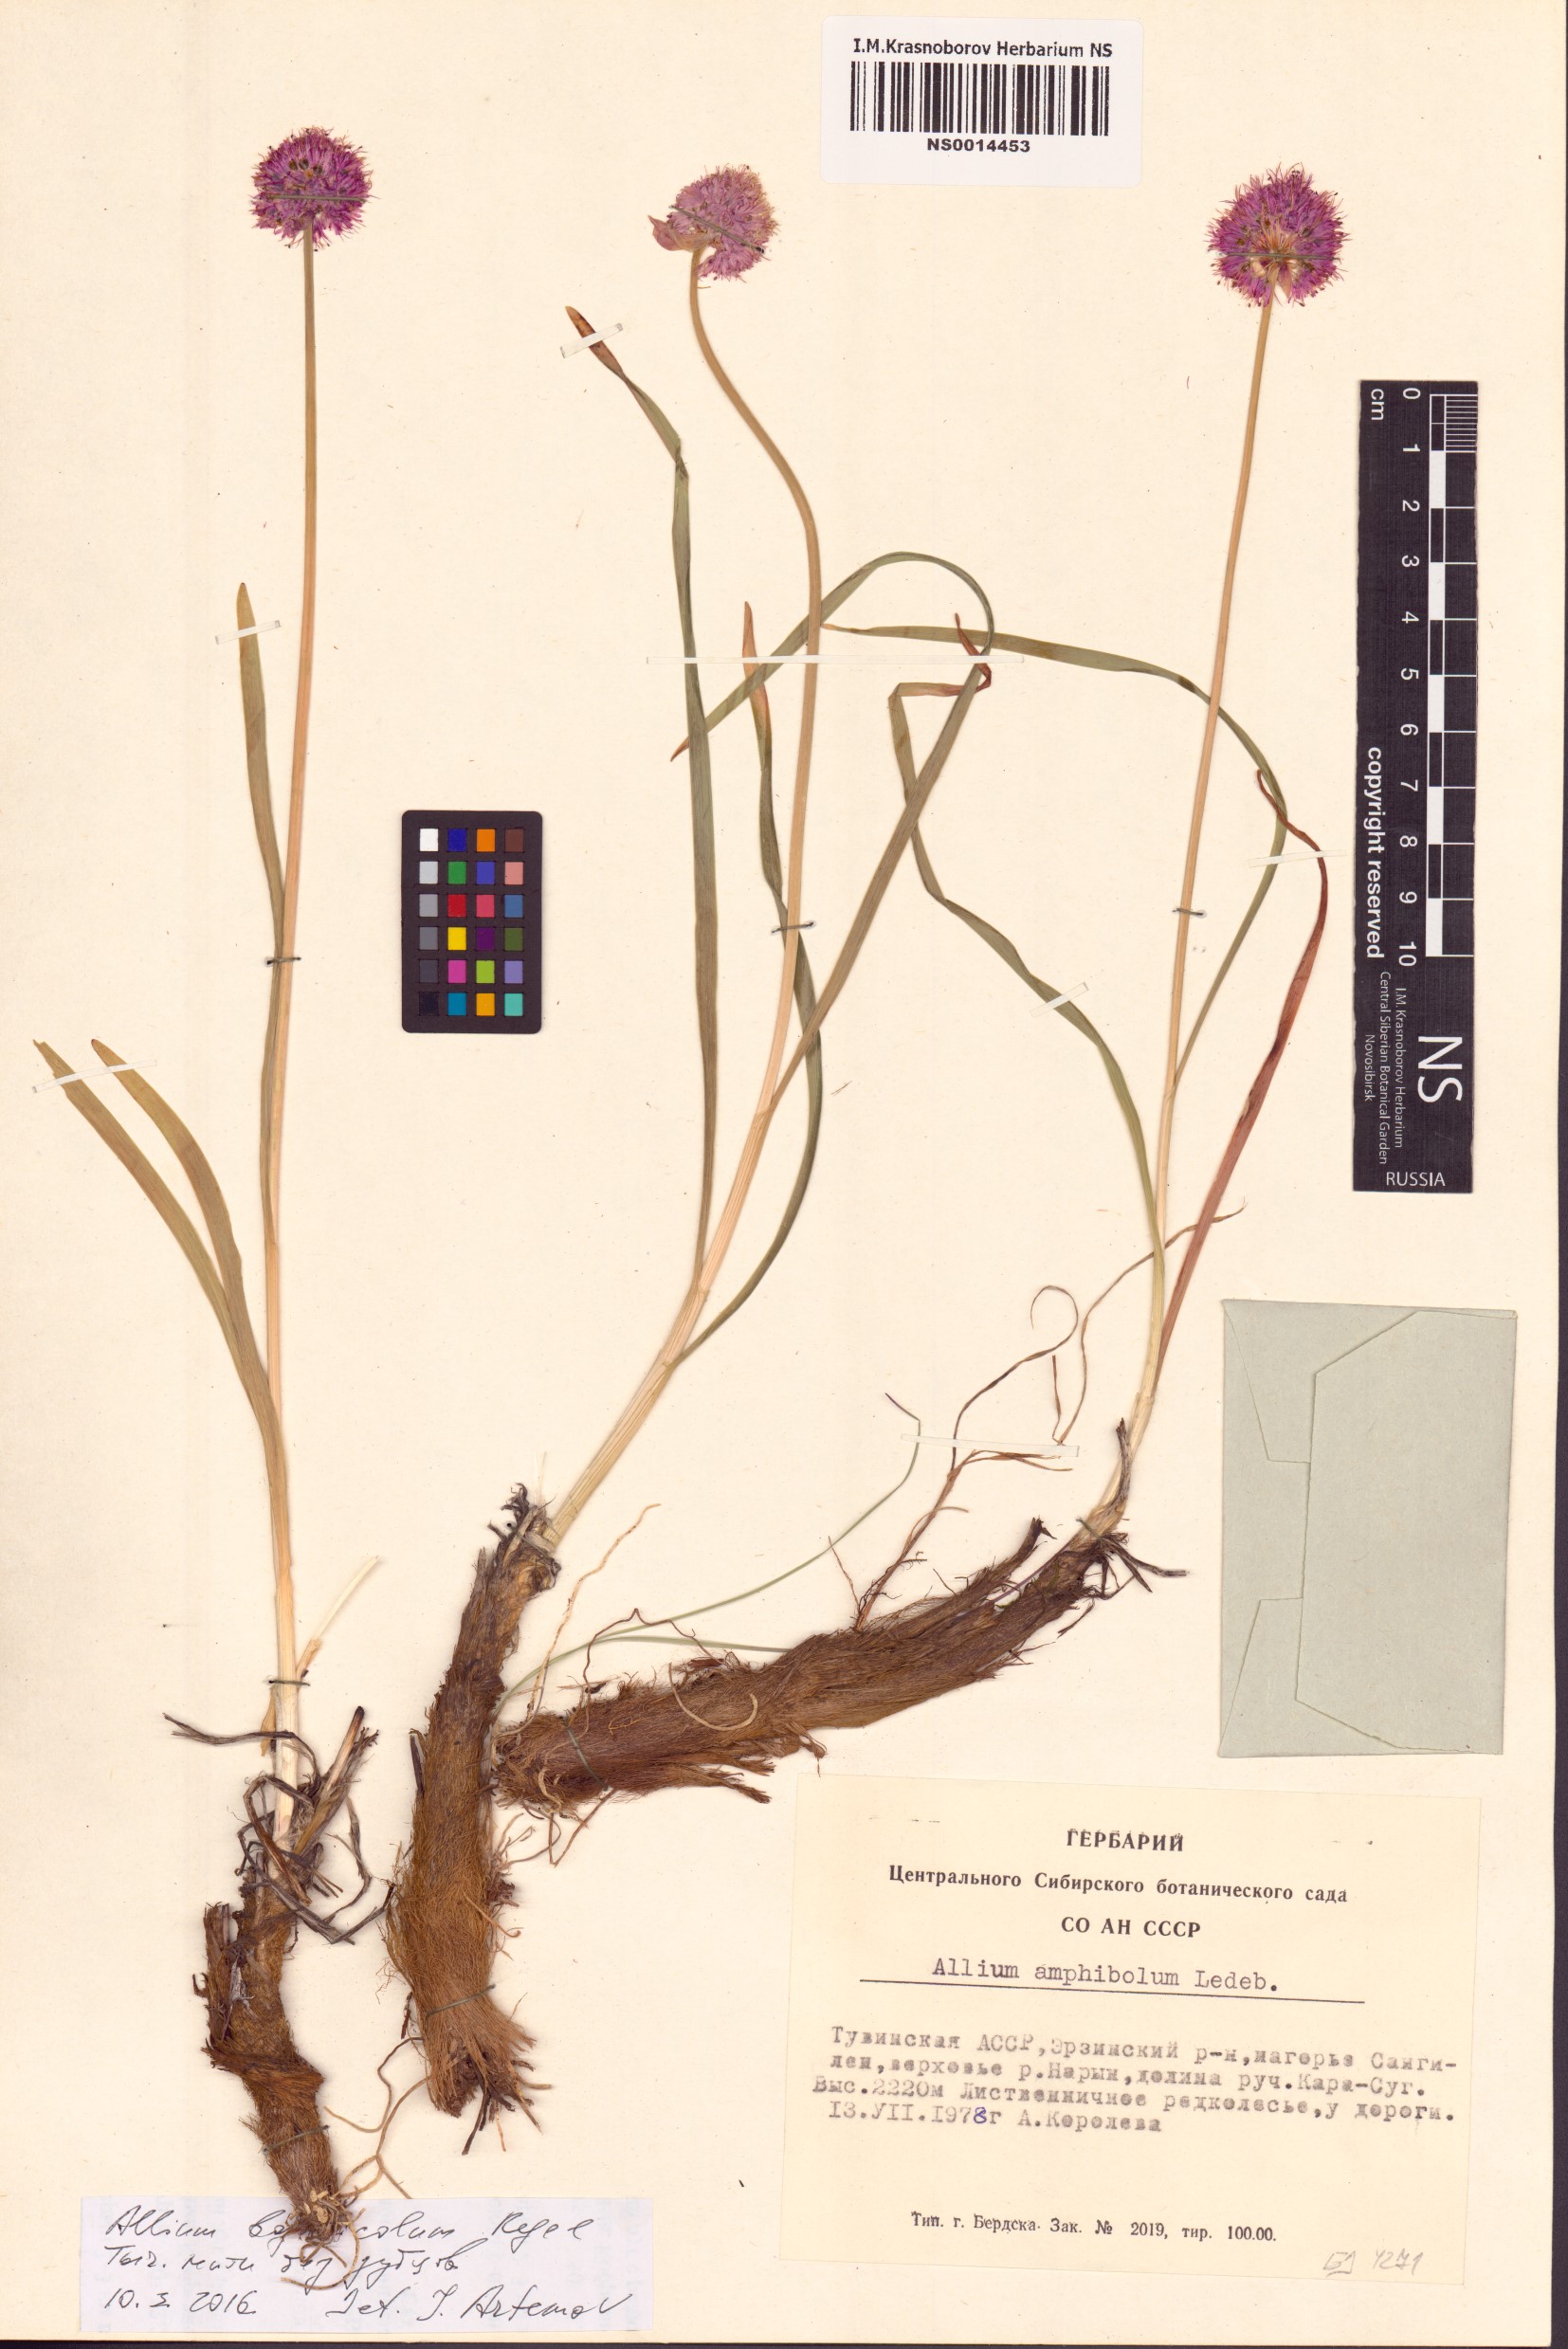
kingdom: Plantae
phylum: Tracheophyta
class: Liliopsida
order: Asparagales
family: Amaryllidaceae
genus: Allium
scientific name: Allium schrenkii
